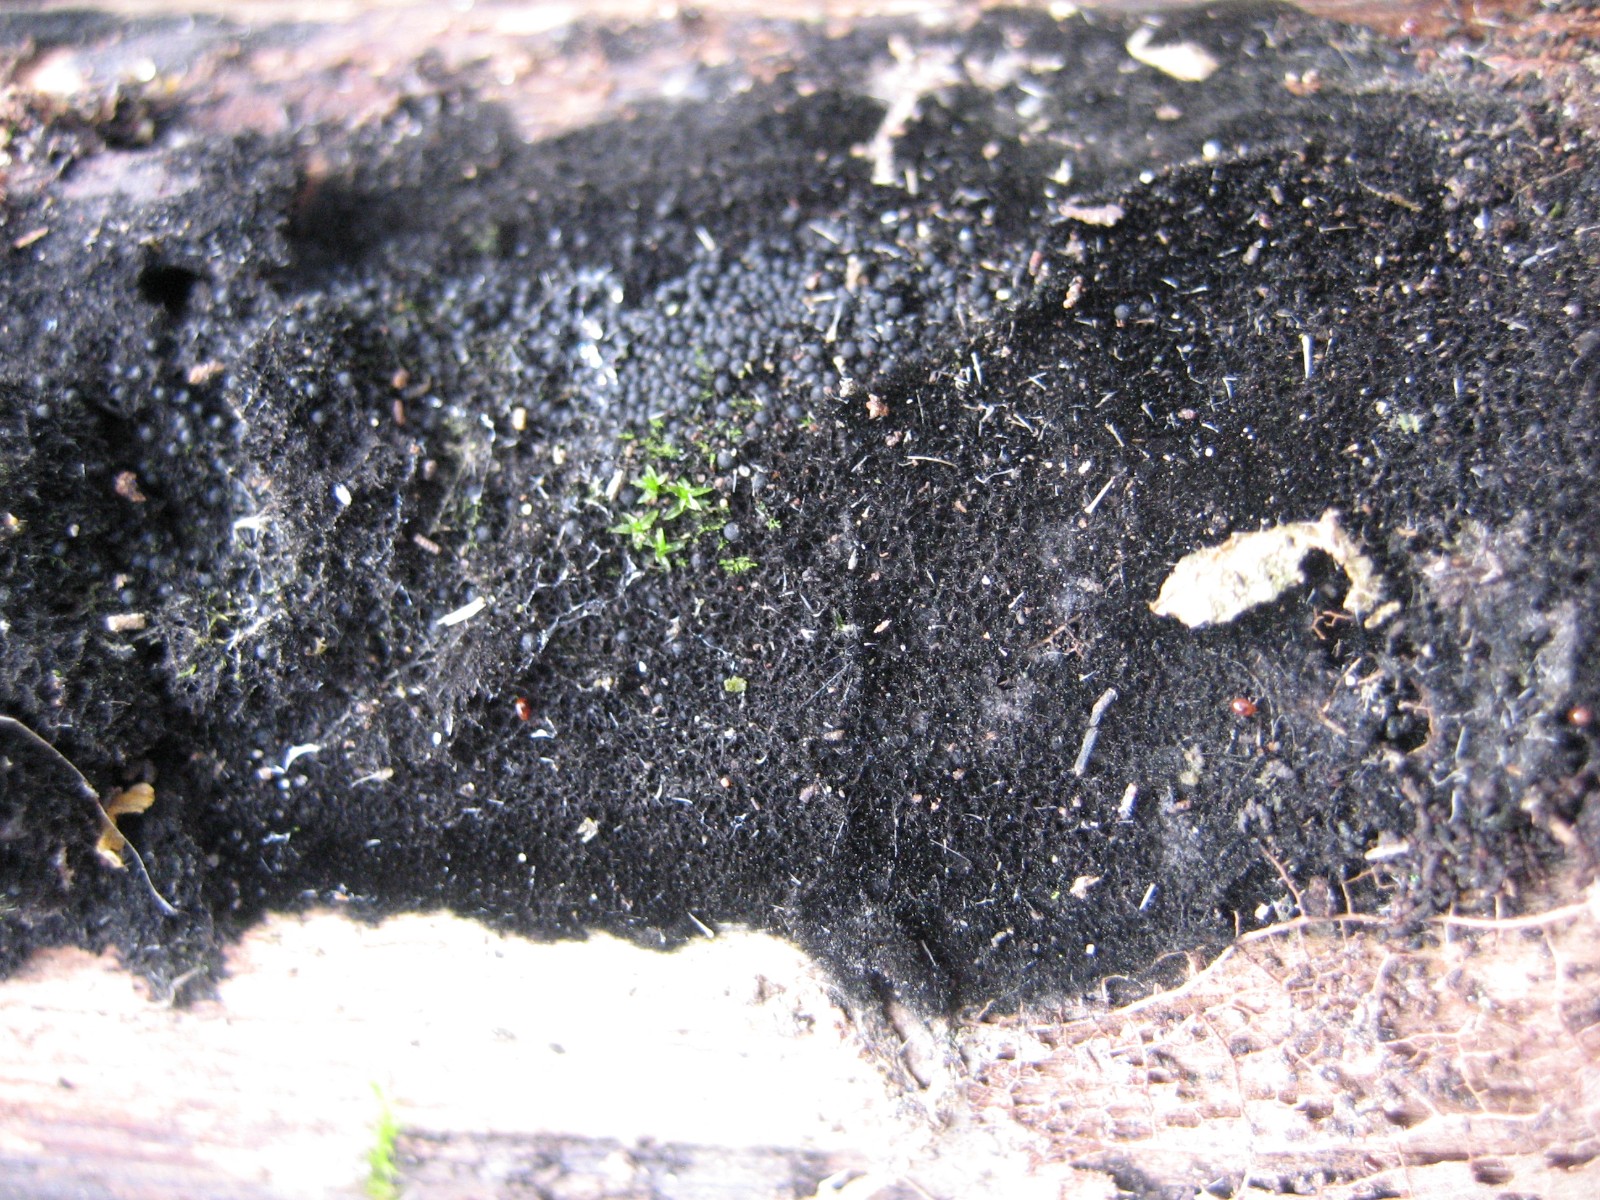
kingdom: Fungi
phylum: Ascomycota
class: Sordariomycetes
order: Coronophorales
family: Chaetosphaerellaceae
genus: Chaetosphaerella
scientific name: Chaetosphaerella phaeostroma
